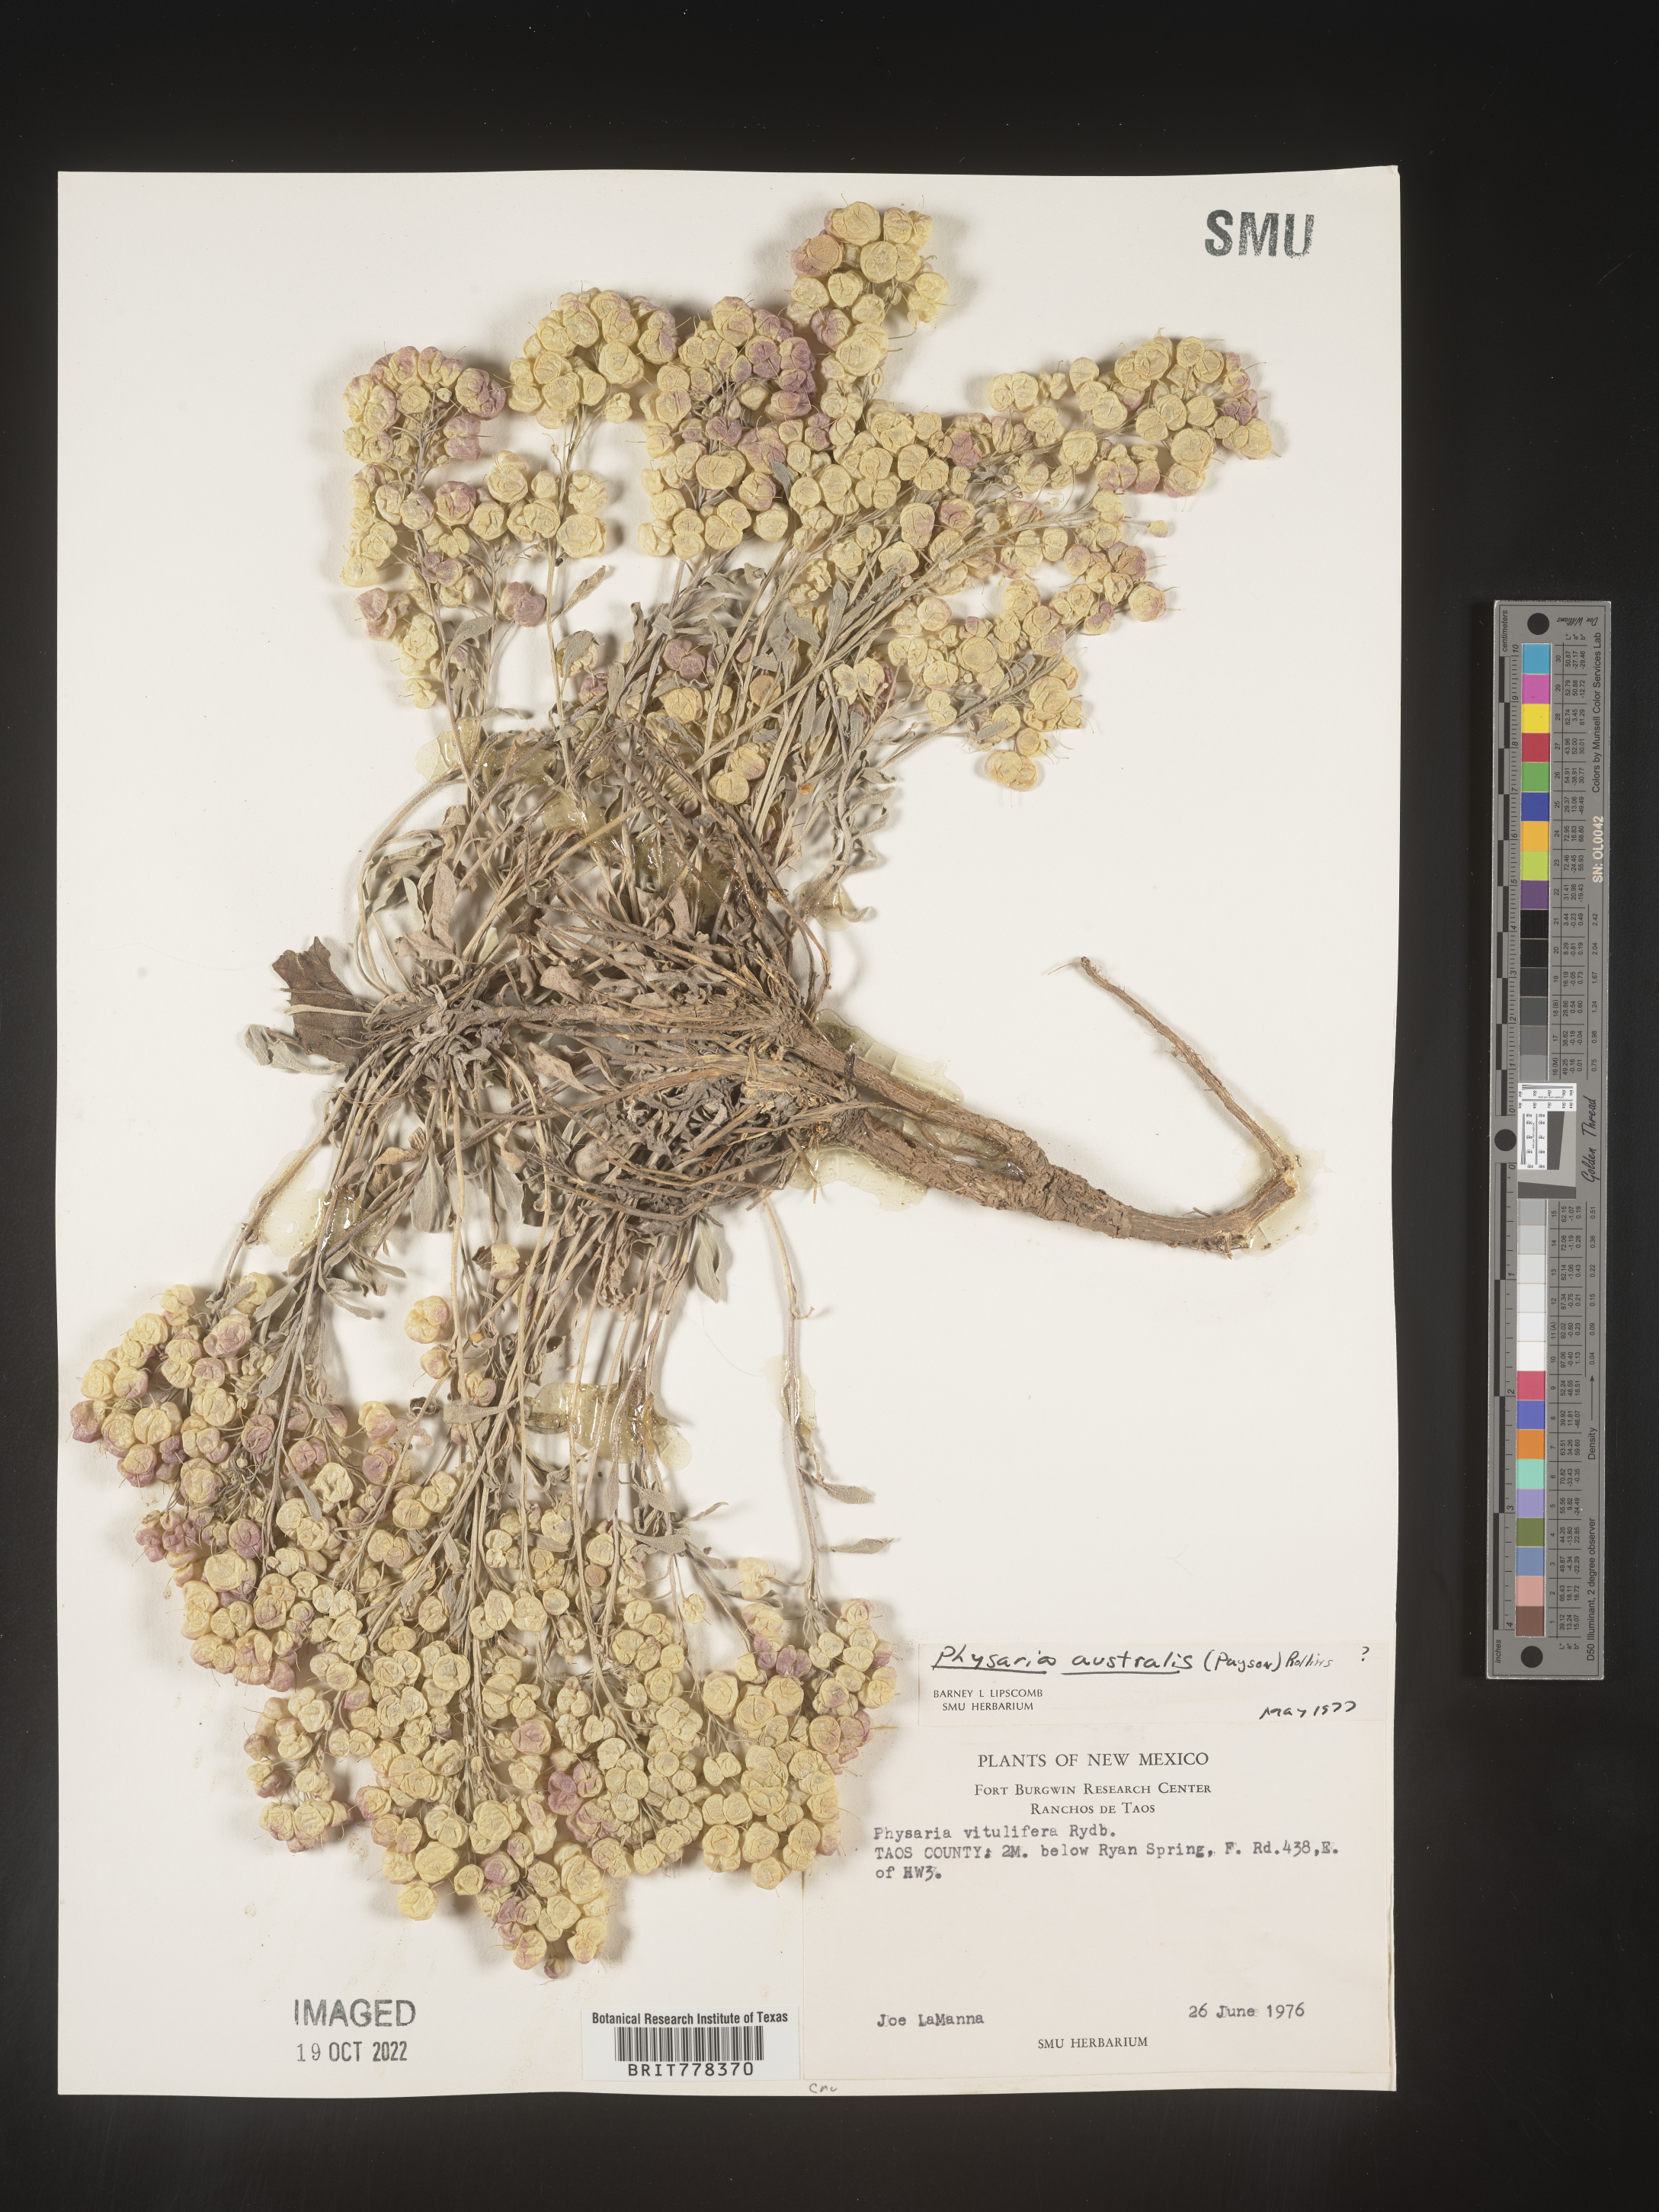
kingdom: Plantae
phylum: Tracheophyta
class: Magnoliopsida
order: Brassicales
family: Brassicaceae
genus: Physaria
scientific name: Physaria
